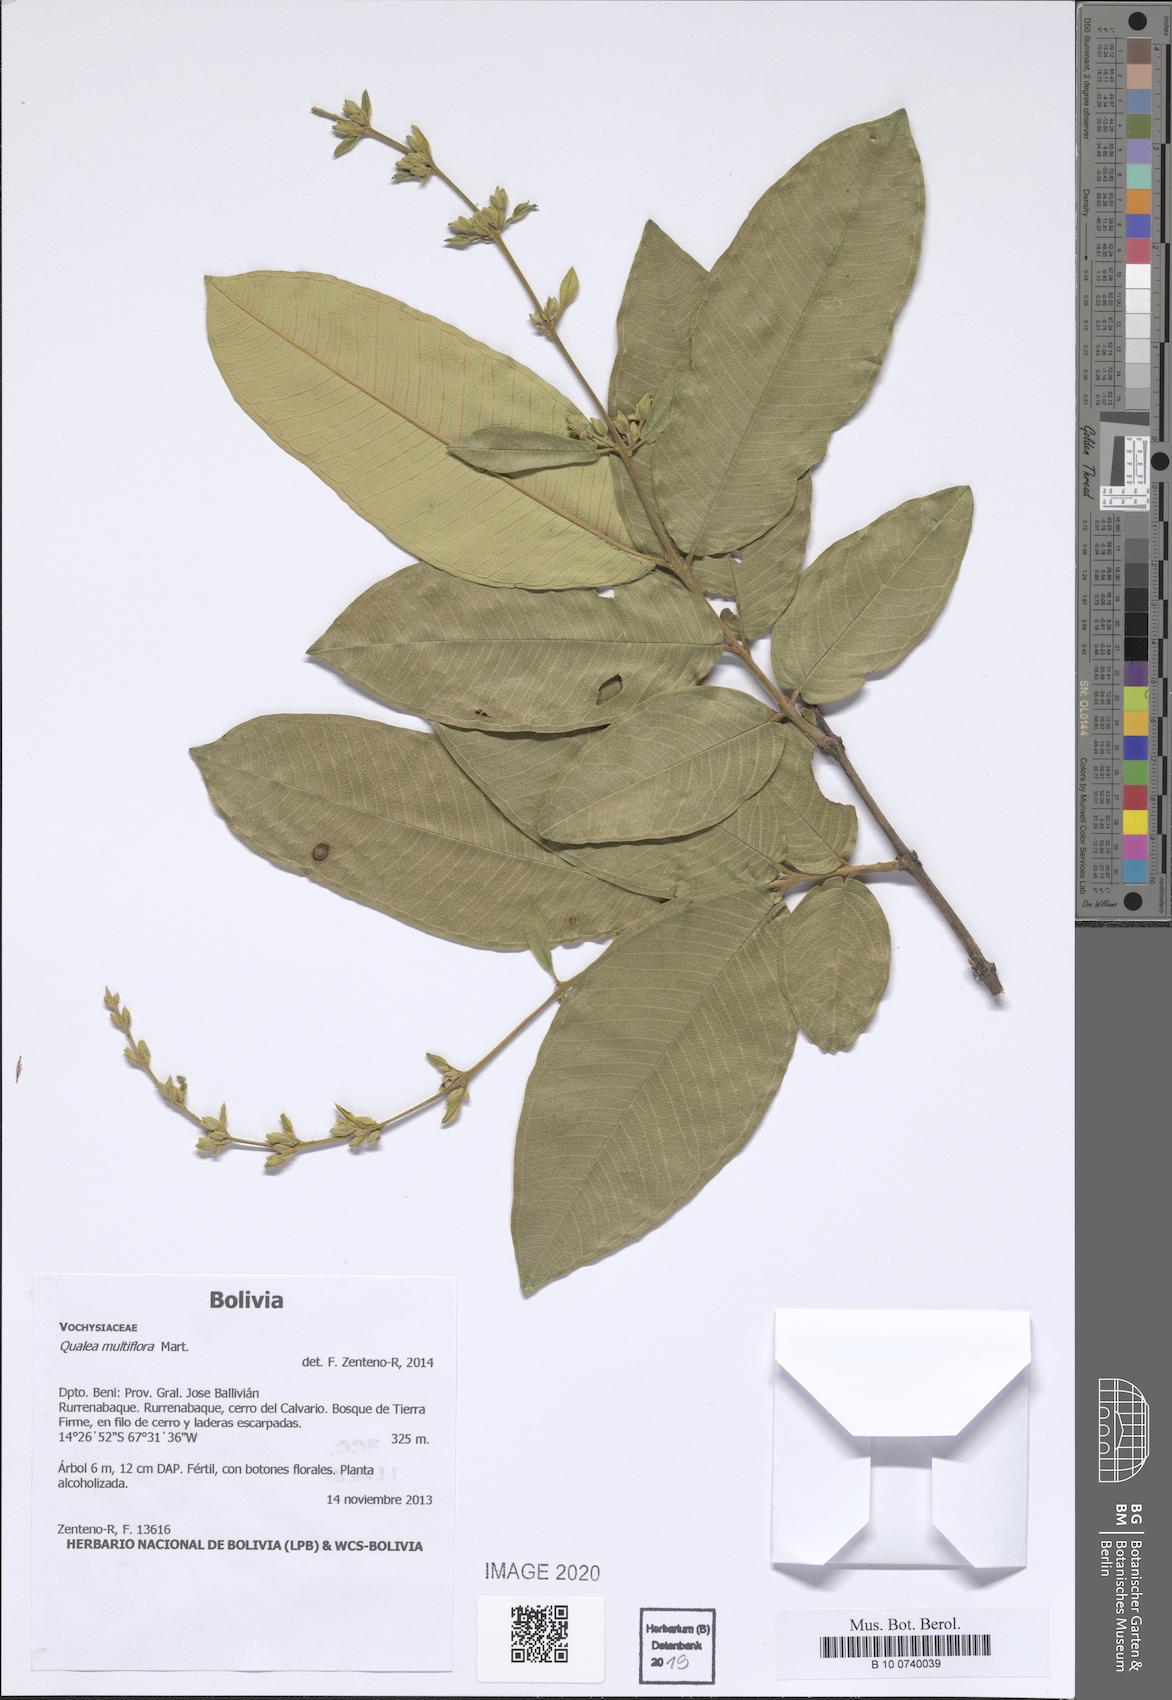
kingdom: Plantae
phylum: Tracheophyta
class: Magnoliopsida
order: Myrtales
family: Vochysiaceae
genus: Qualea
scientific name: Qualea multiflora
